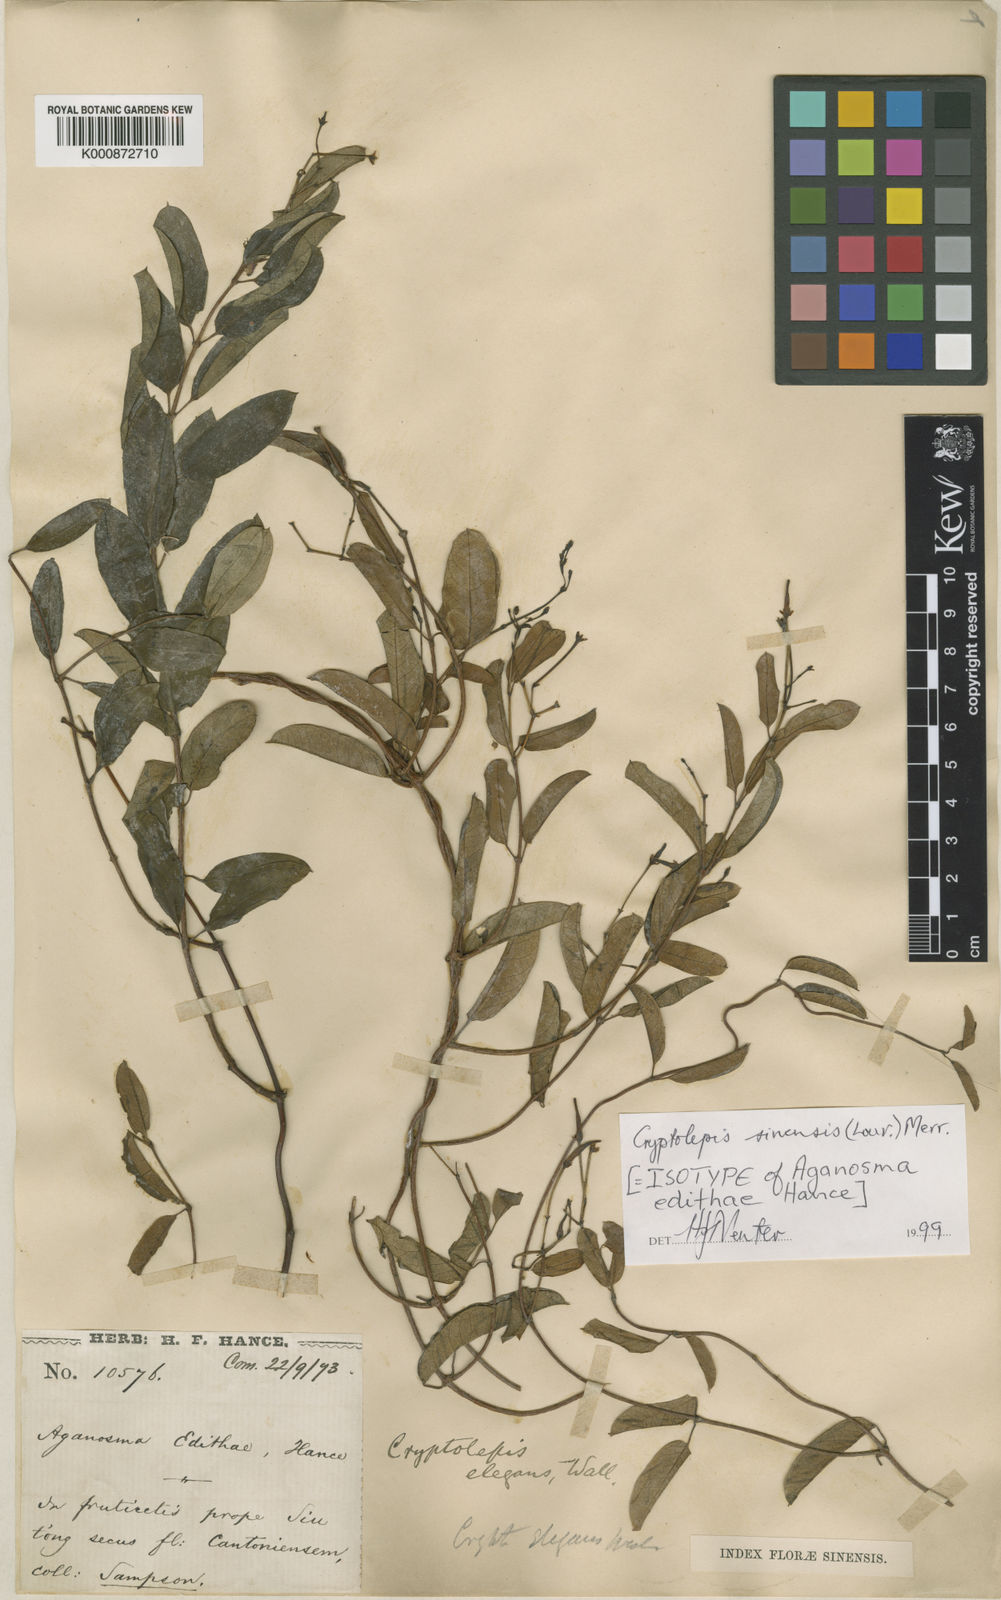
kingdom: Plantae
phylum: Tracheophyta
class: Magnoliopsida
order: Gentianales
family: Apocynaceae
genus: Cryptolepis
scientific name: Cryptolepis sinensis
